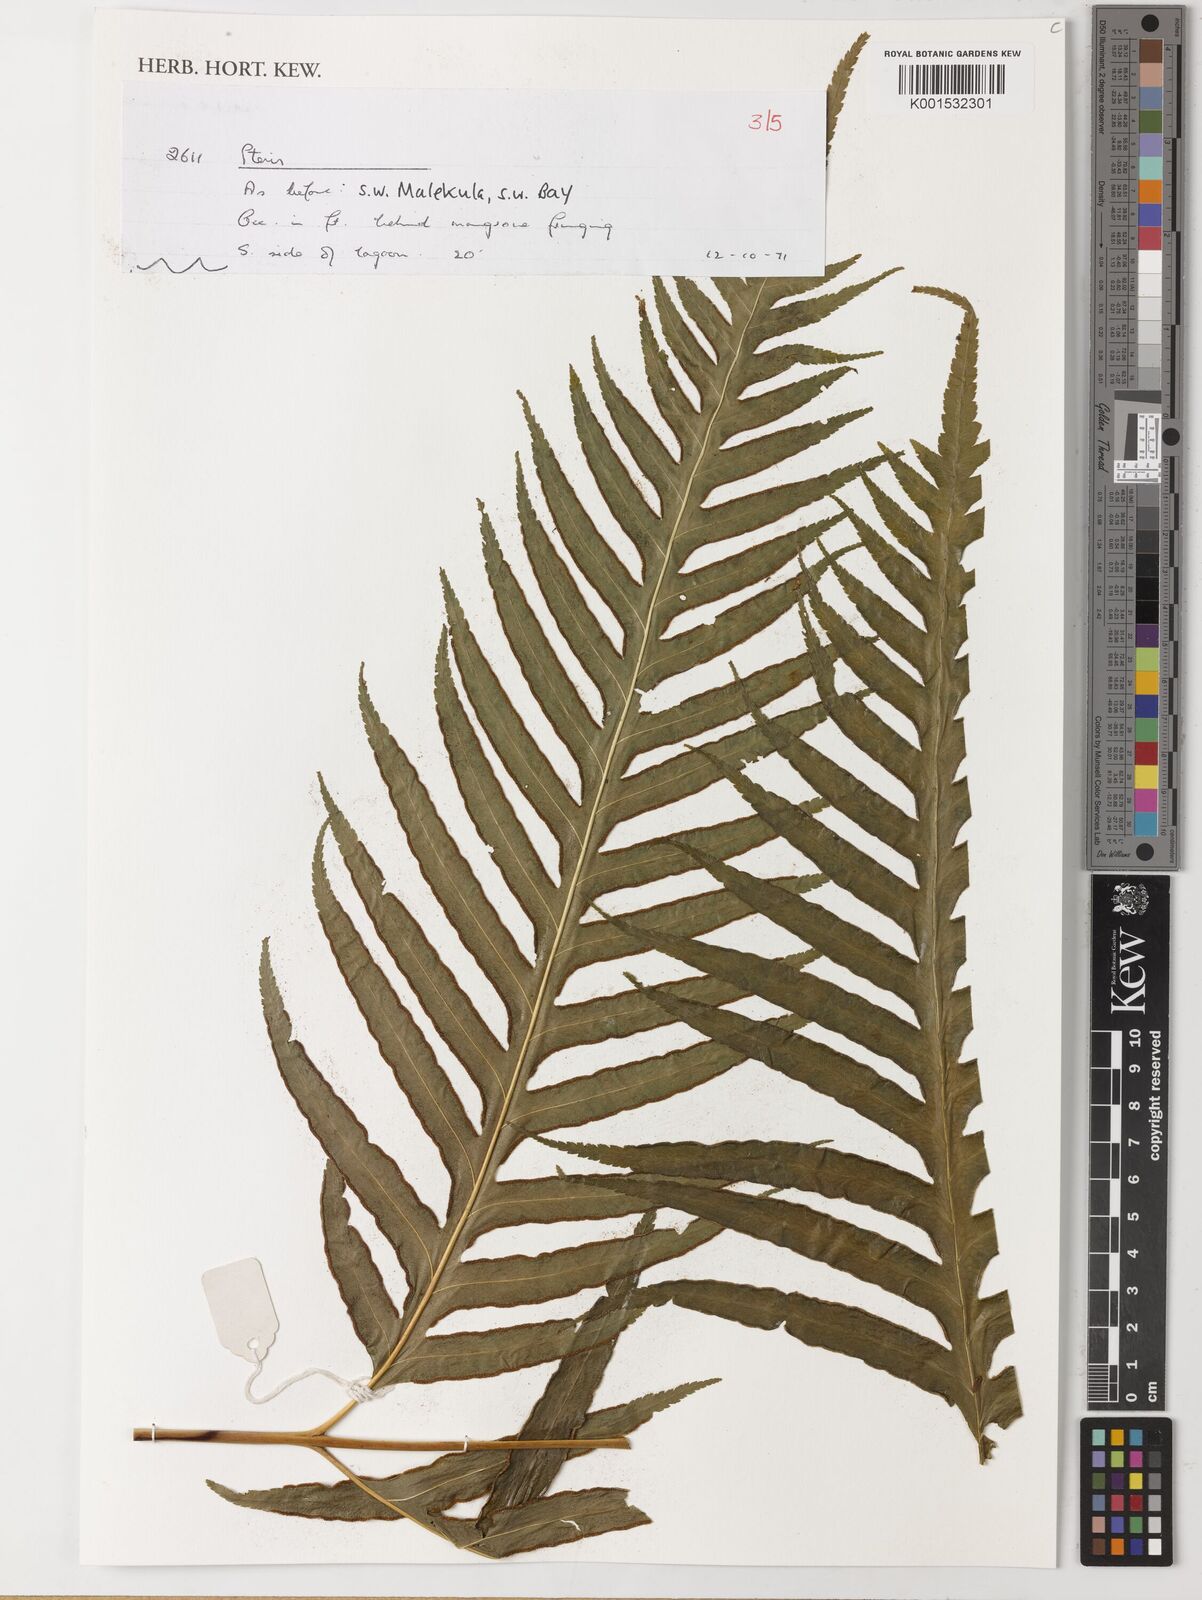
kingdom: Plantae
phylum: Tracheophyta
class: Polypodiopsida
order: Polypodiales
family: Pteridaceae
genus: Pteris
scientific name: Pteris
